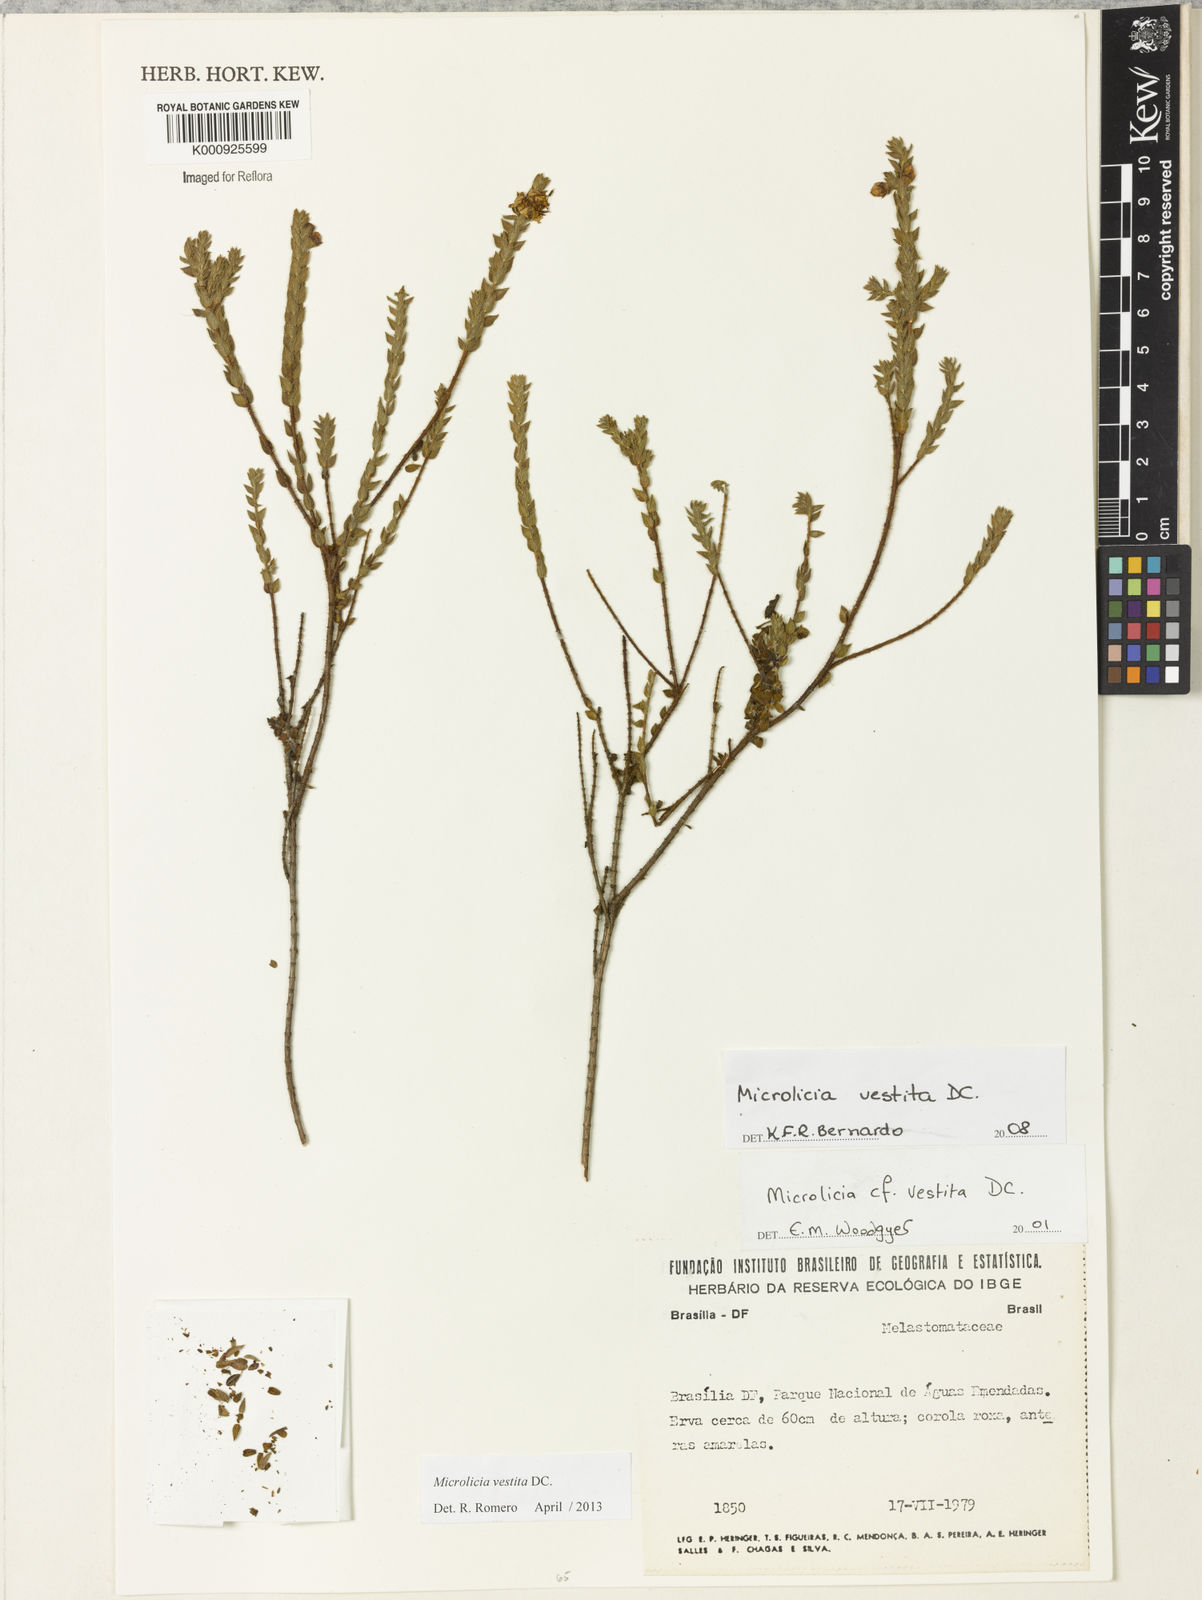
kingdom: Plantae
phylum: Tracheophyta
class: Magnoliopsida
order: Myrtales
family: Melastomataceae
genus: Microlicia
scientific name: Microlicia vestita
